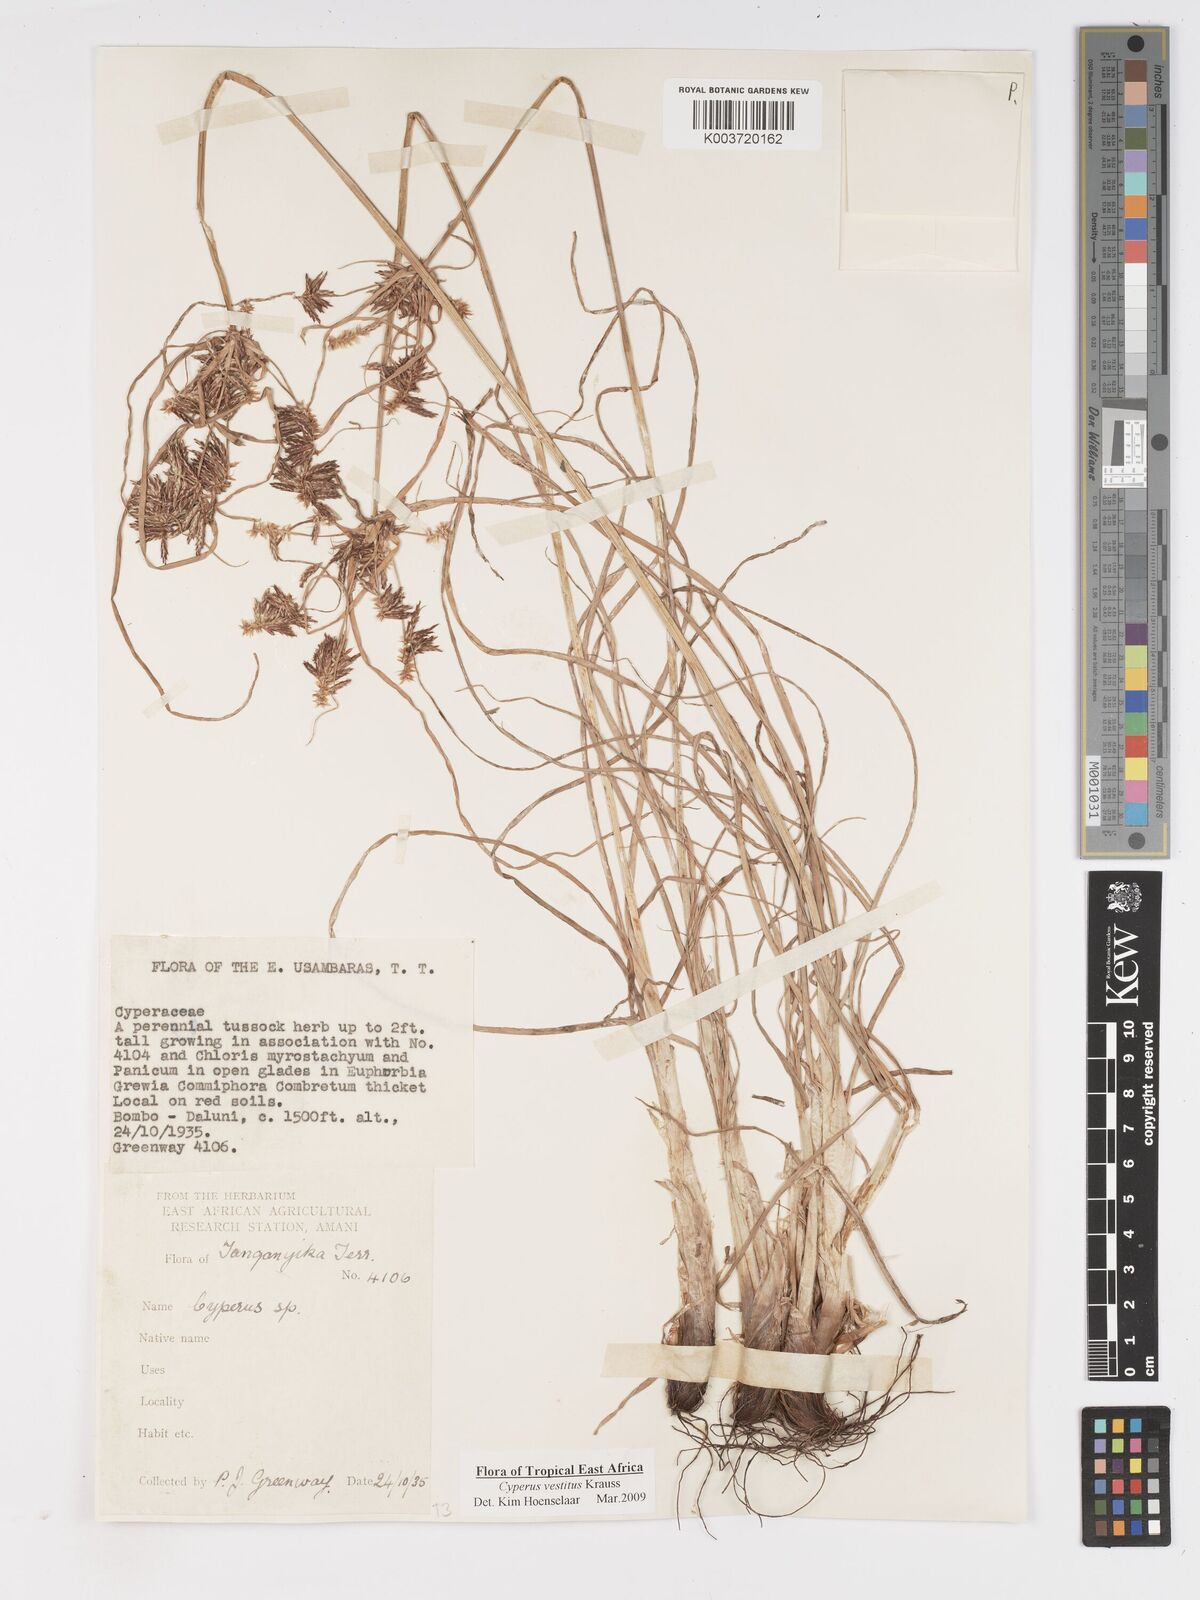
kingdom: Plantae
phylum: Tracheophyta
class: Liliopsida
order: Poales
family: Cyperaceae
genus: Cyperus
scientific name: Cyperus vestitus
